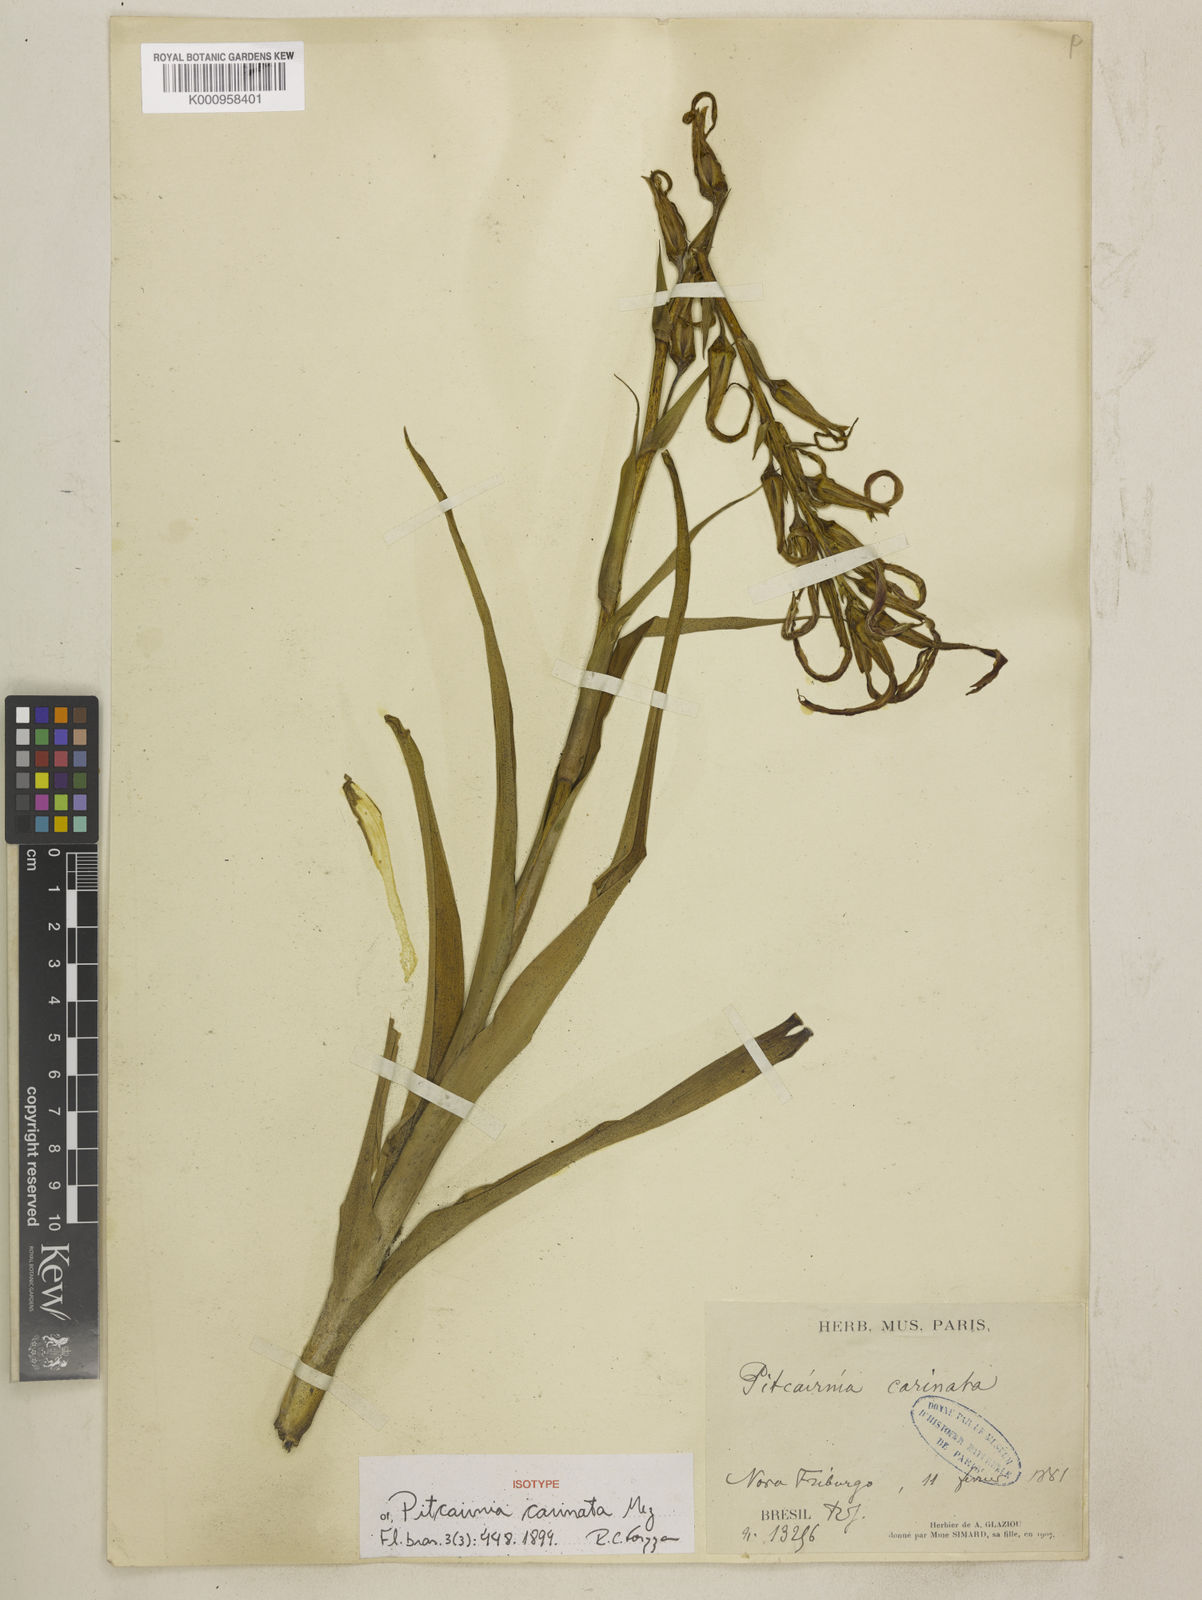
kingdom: Plantae
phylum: Tracheophyta
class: Liliopsida
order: Poales
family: Bromeliaceae
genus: Pitcairnia
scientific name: Pitcairnia carinata
